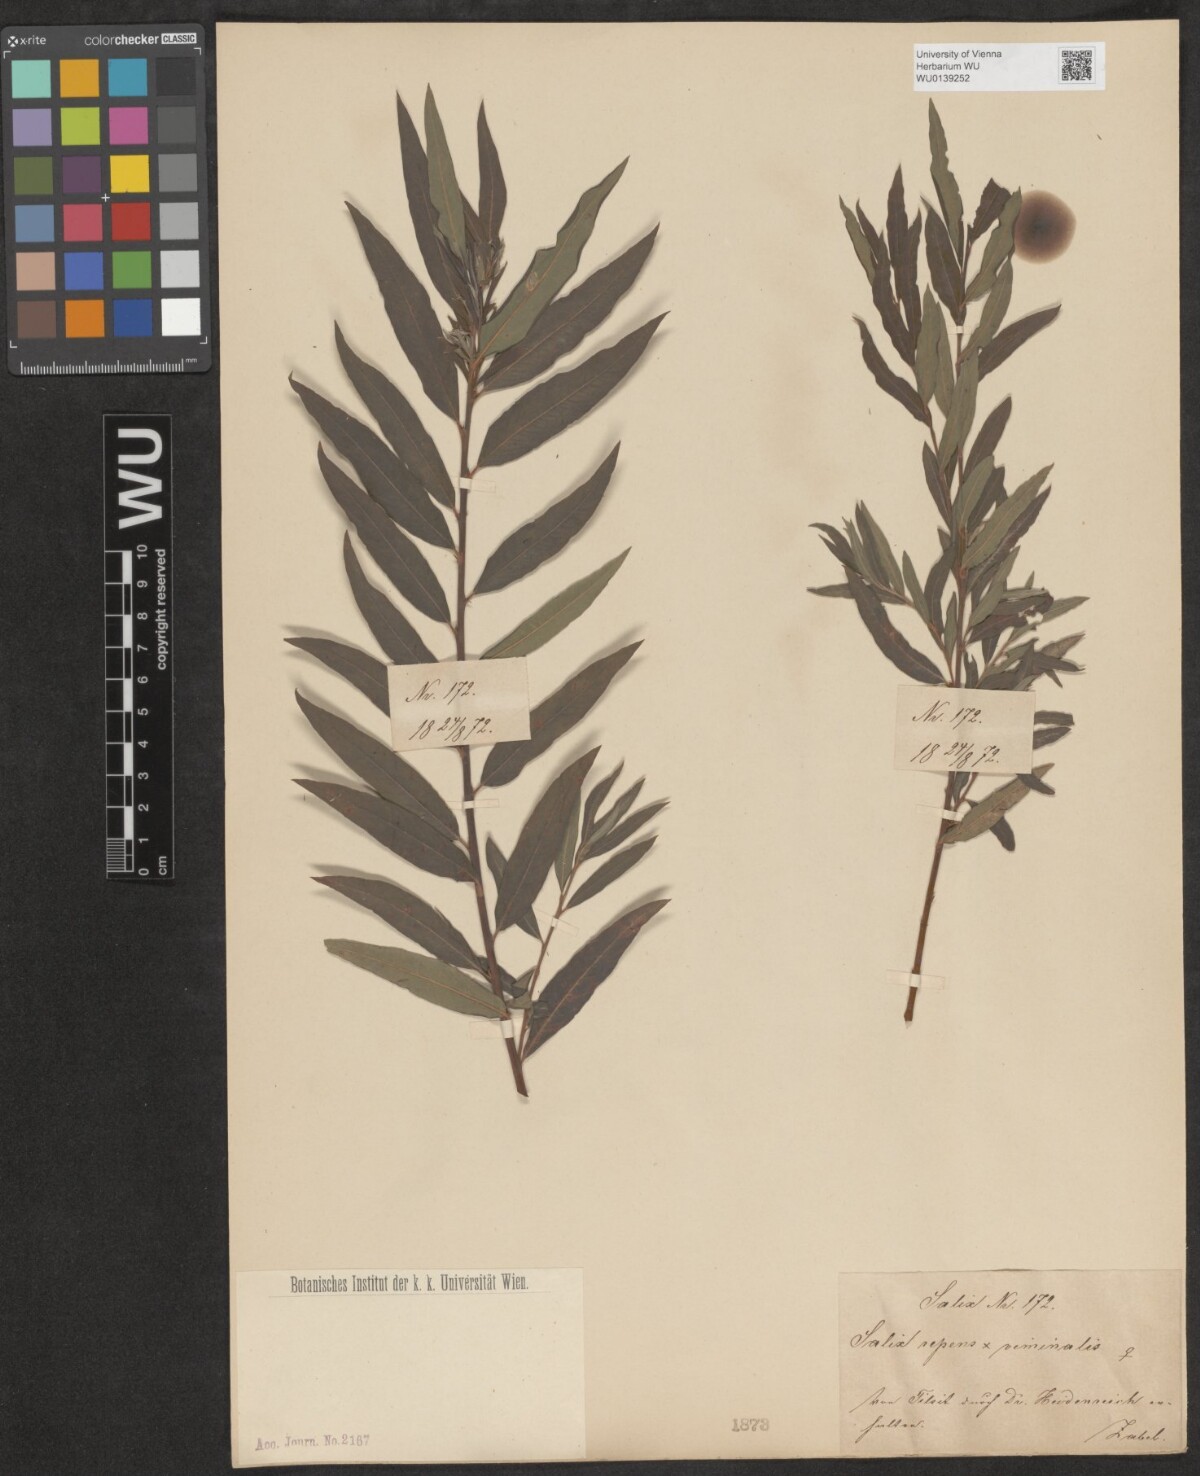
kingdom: Plantae
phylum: Tracheophyta
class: Magnoliopsida
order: Malpighiales
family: Salicaceae
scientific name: Salicaceae
